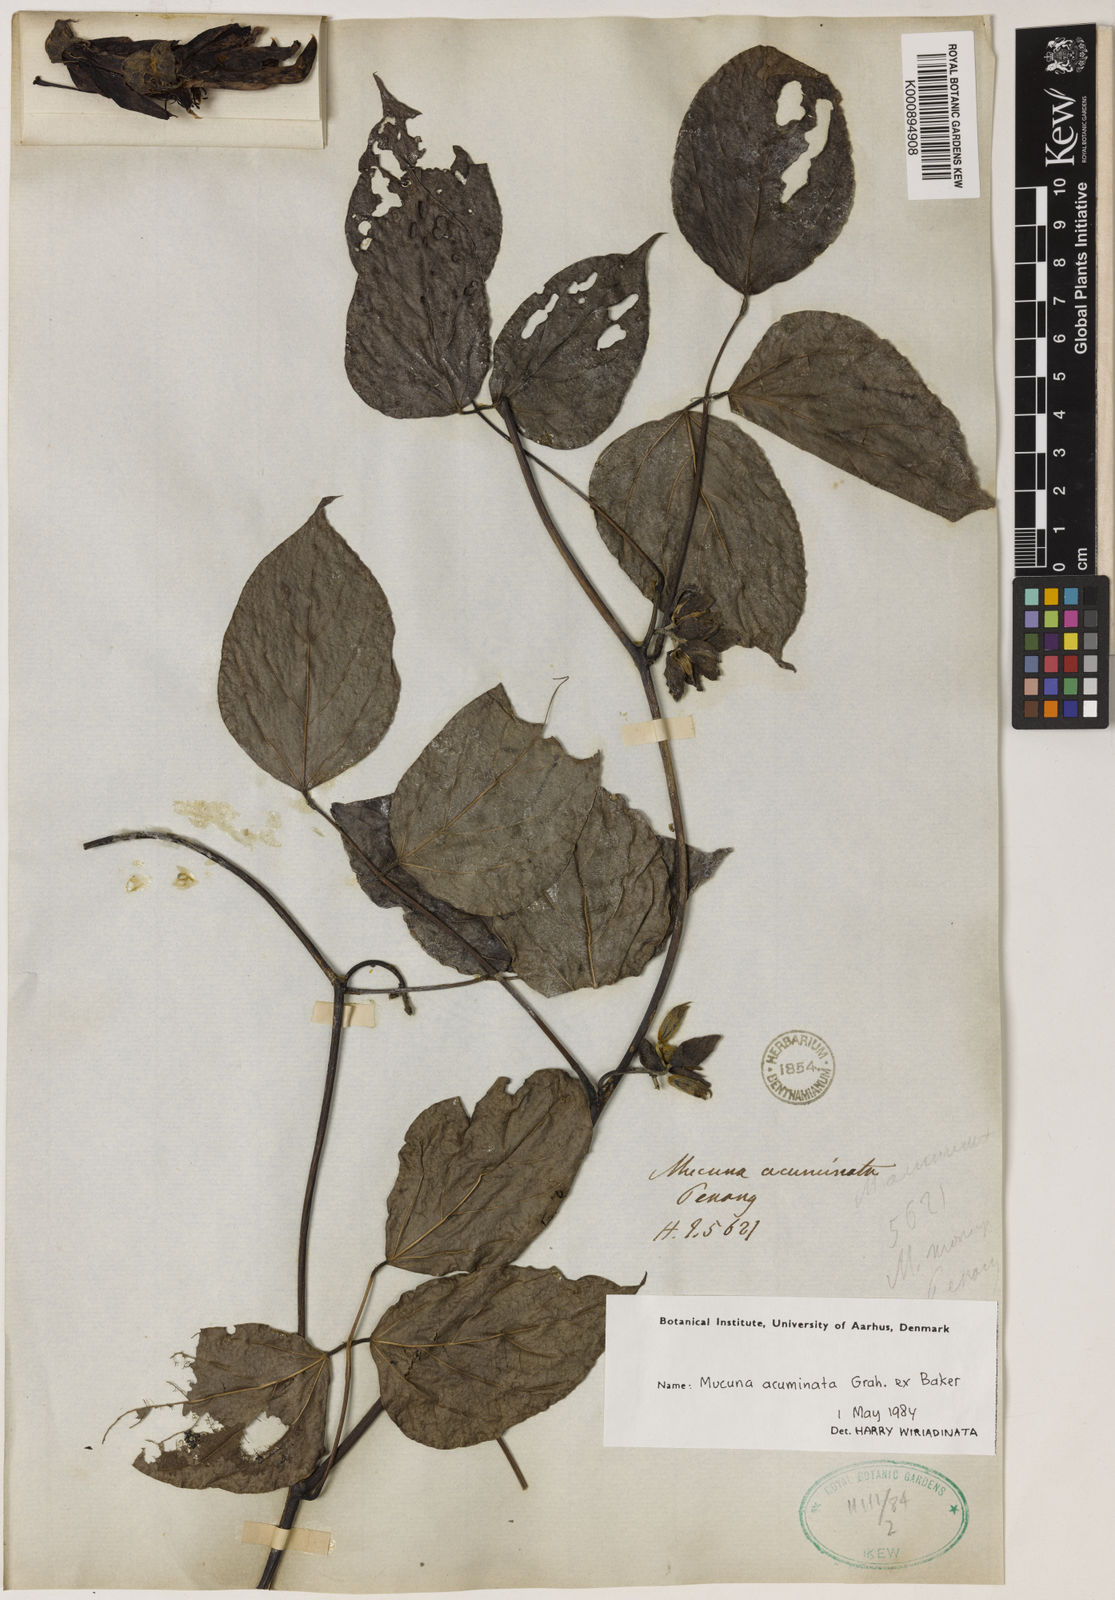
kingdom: Plantae
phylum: Tracheophyta
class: Magnoliopsida
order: Fabales
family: Fabaceae
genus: Mucuna
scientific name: Mucuna acuminata
